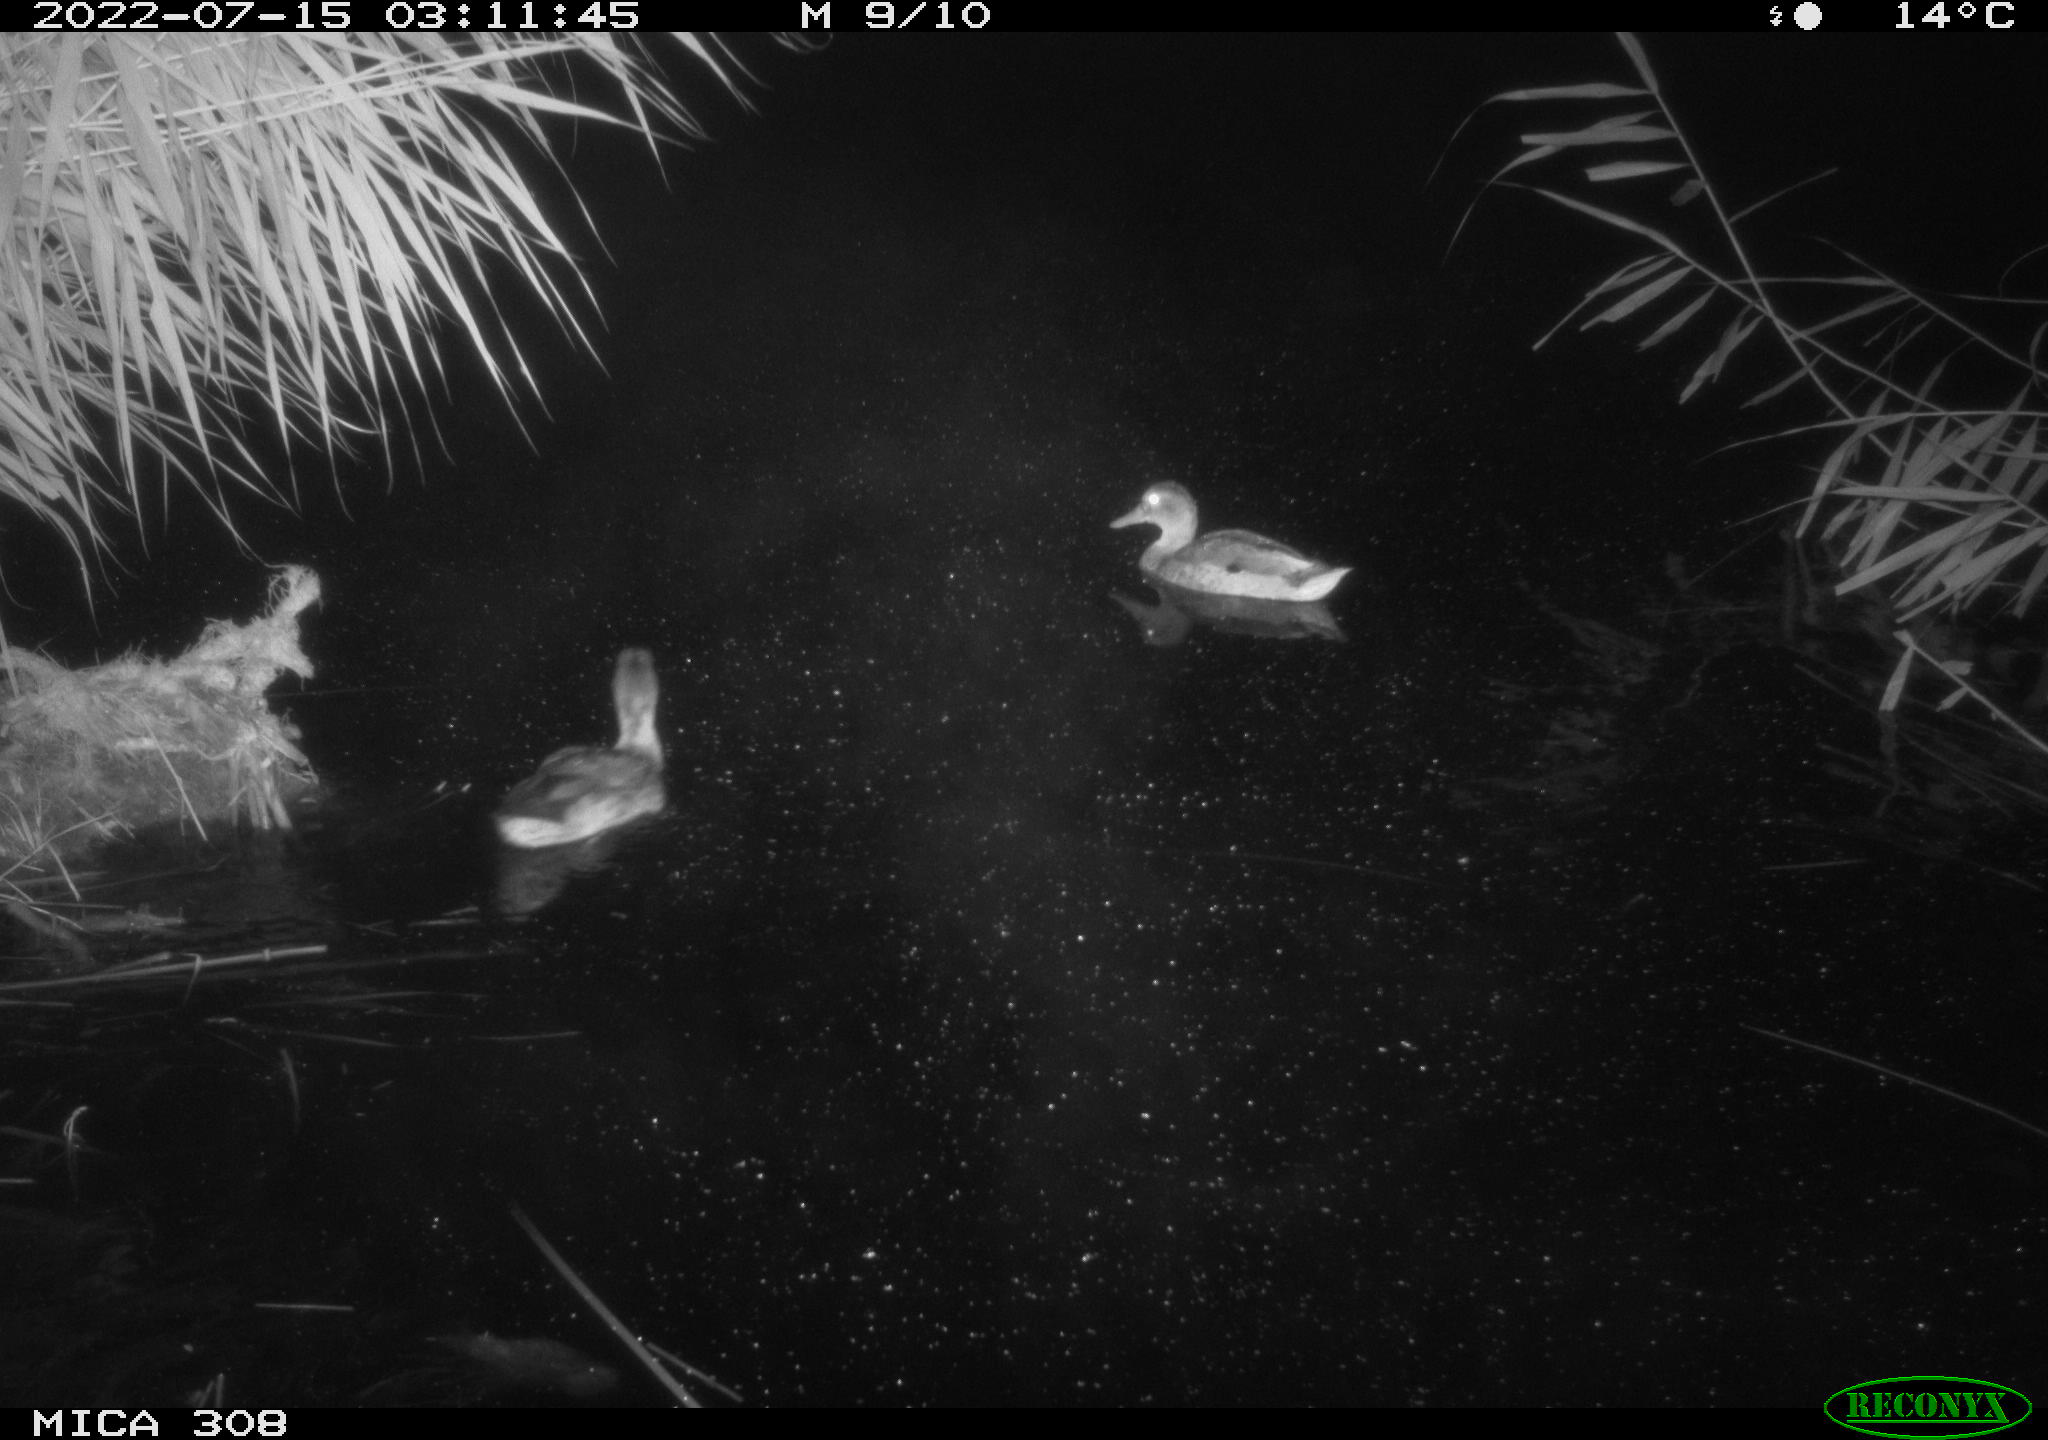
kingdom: Animalia
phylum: Chordata
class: Aves
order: Anseriformes
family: Anatidae
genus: Anas
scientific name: Anas platyrhynchos
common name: Mallard
